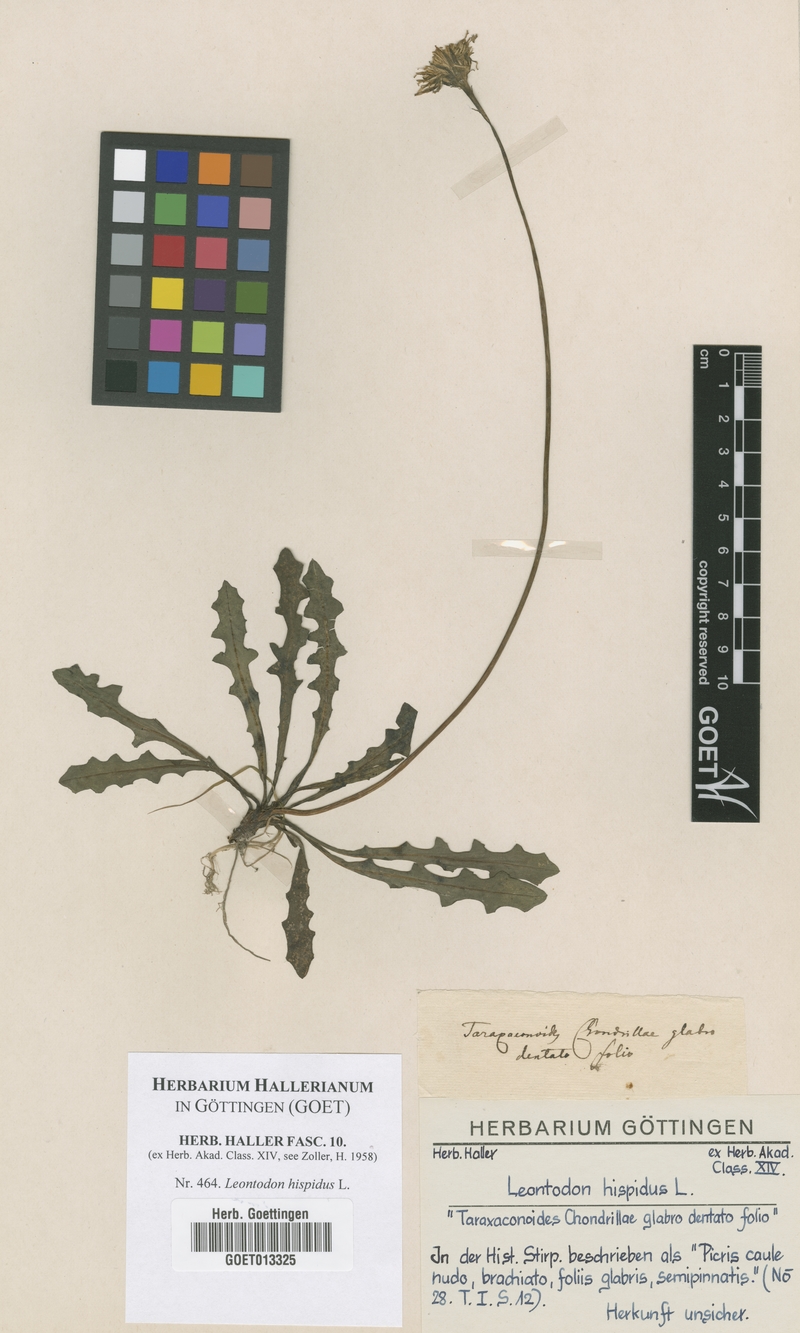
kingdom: Plantae
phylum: Tracheophyta
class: Magnoliopsida
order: Asterales
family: Asteraceae
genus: Leontodon
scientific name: Leontodon hispidus
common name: Rough hawkbit
